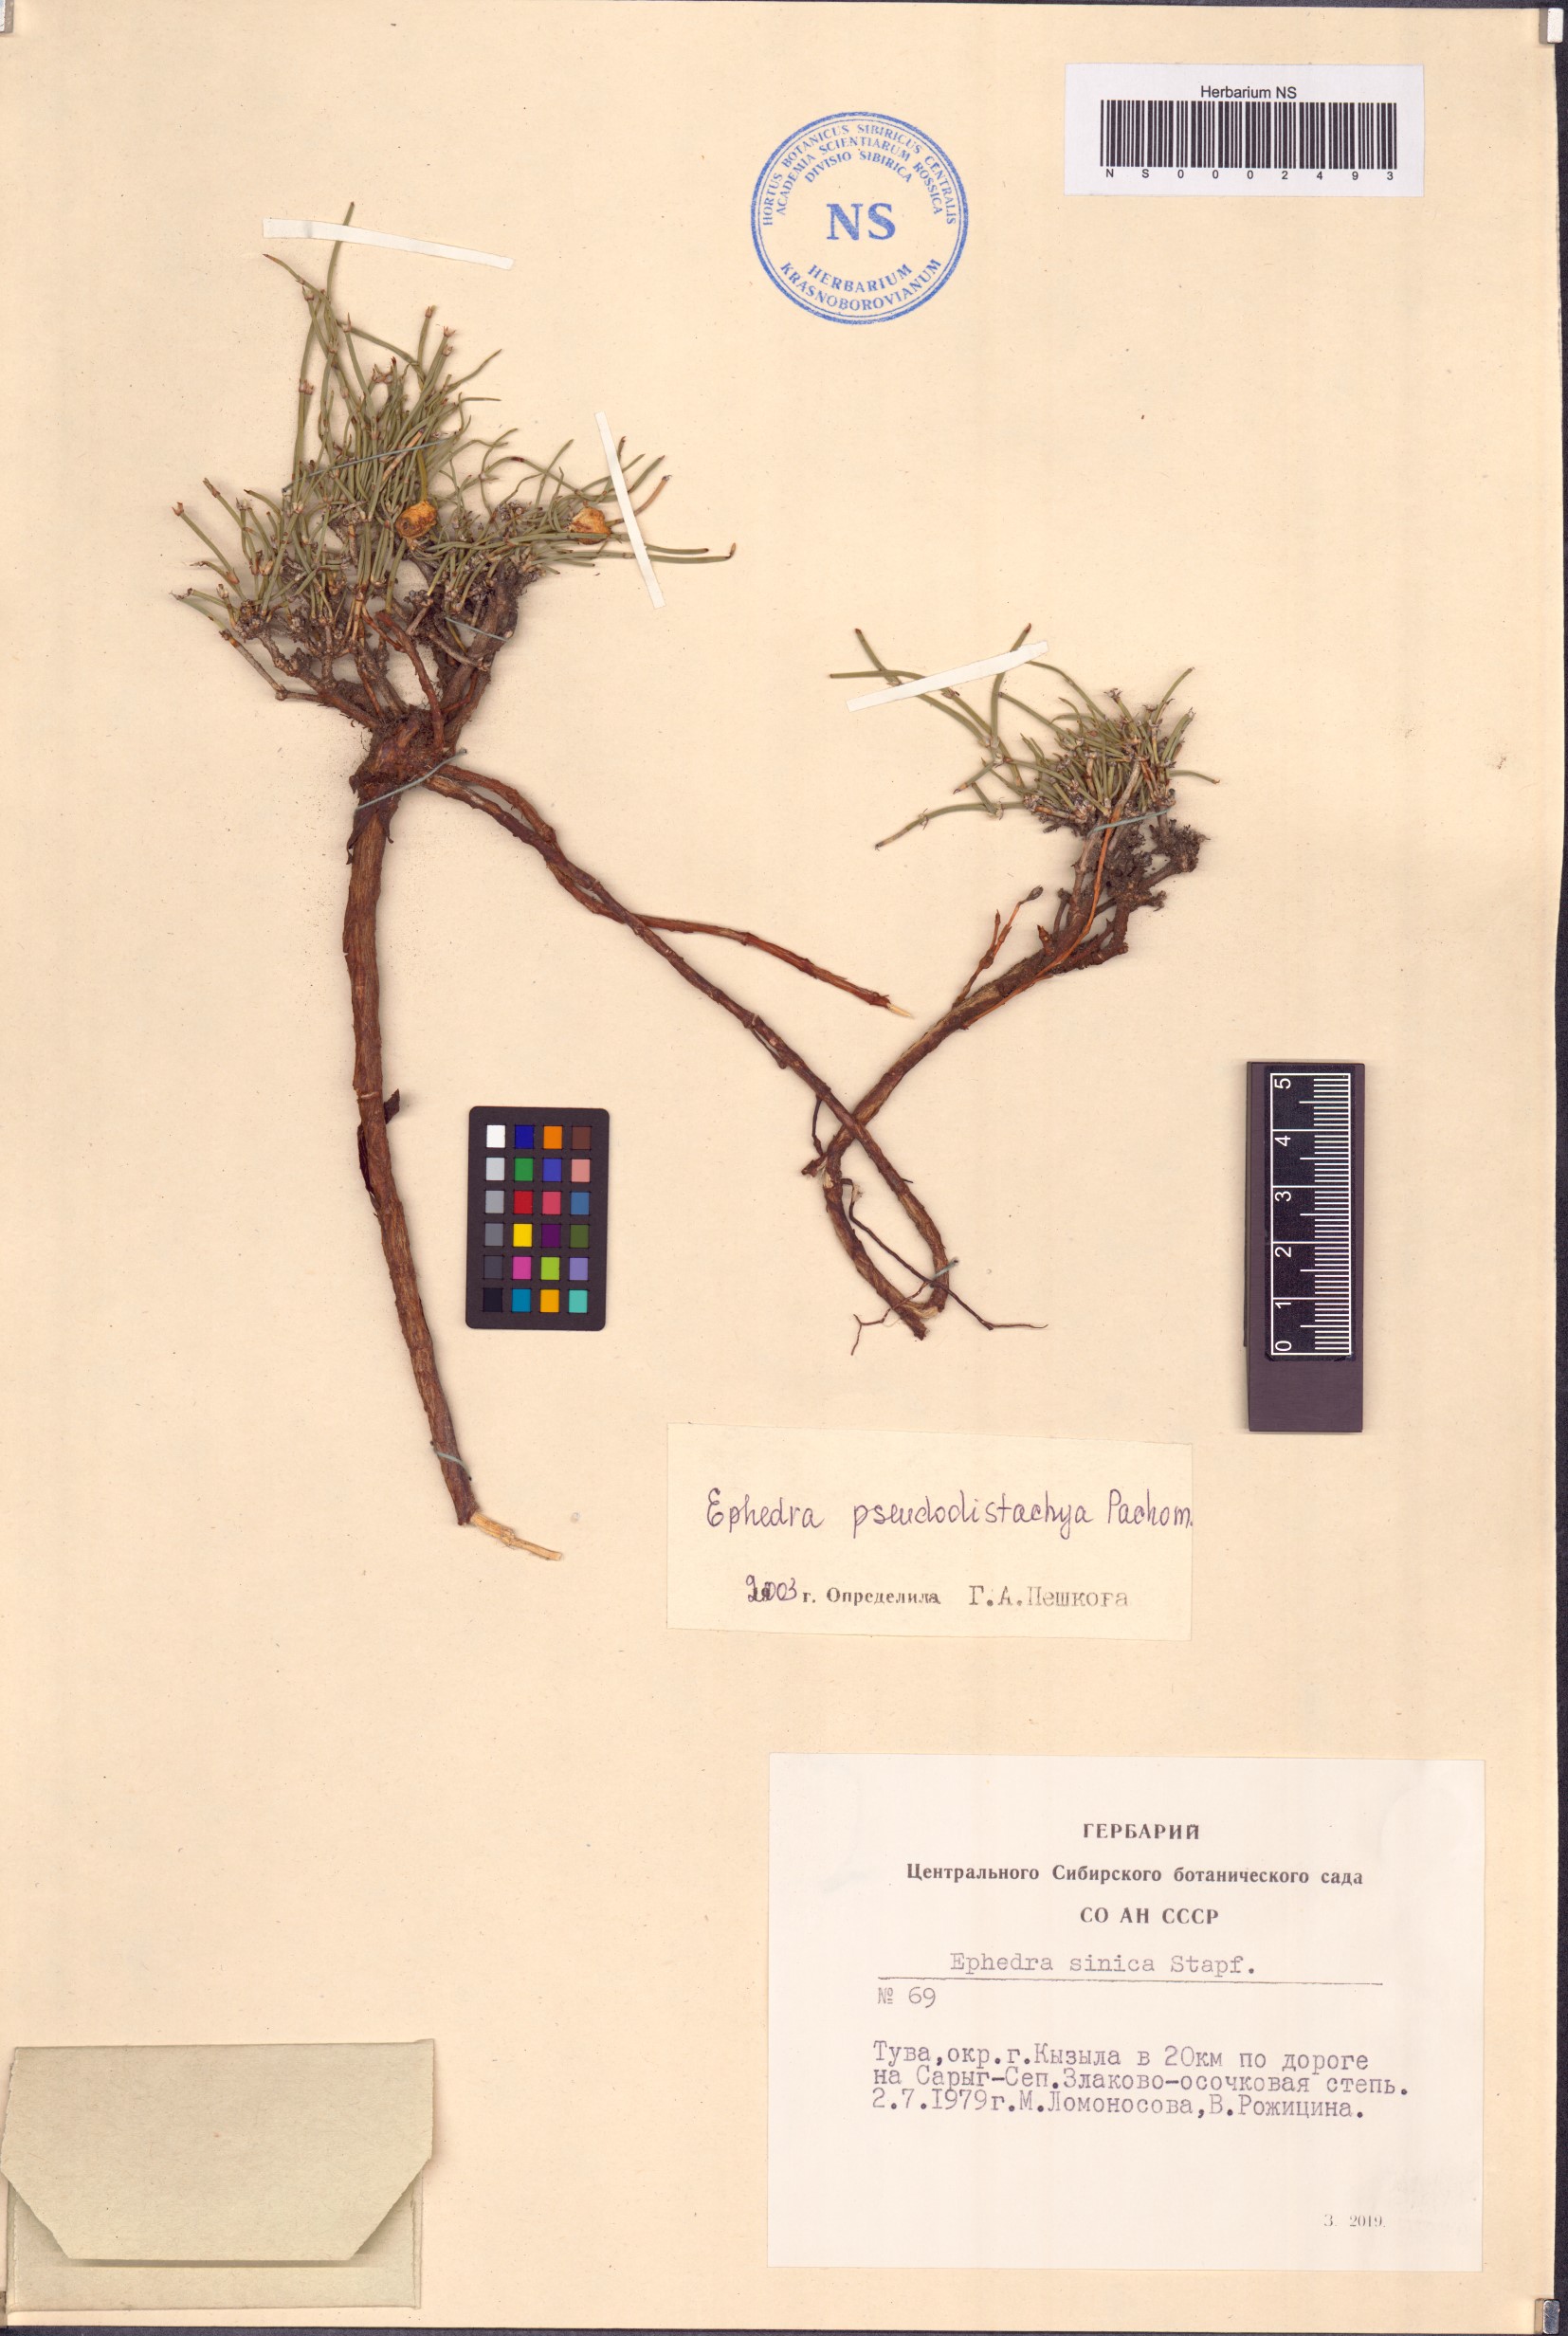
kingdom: Plantae
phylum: Tracheophyta
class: Gnetopsida
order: Ephedrales
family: Ephedraceae
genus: Ephedra
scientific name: Ephedra pseudodistachya
